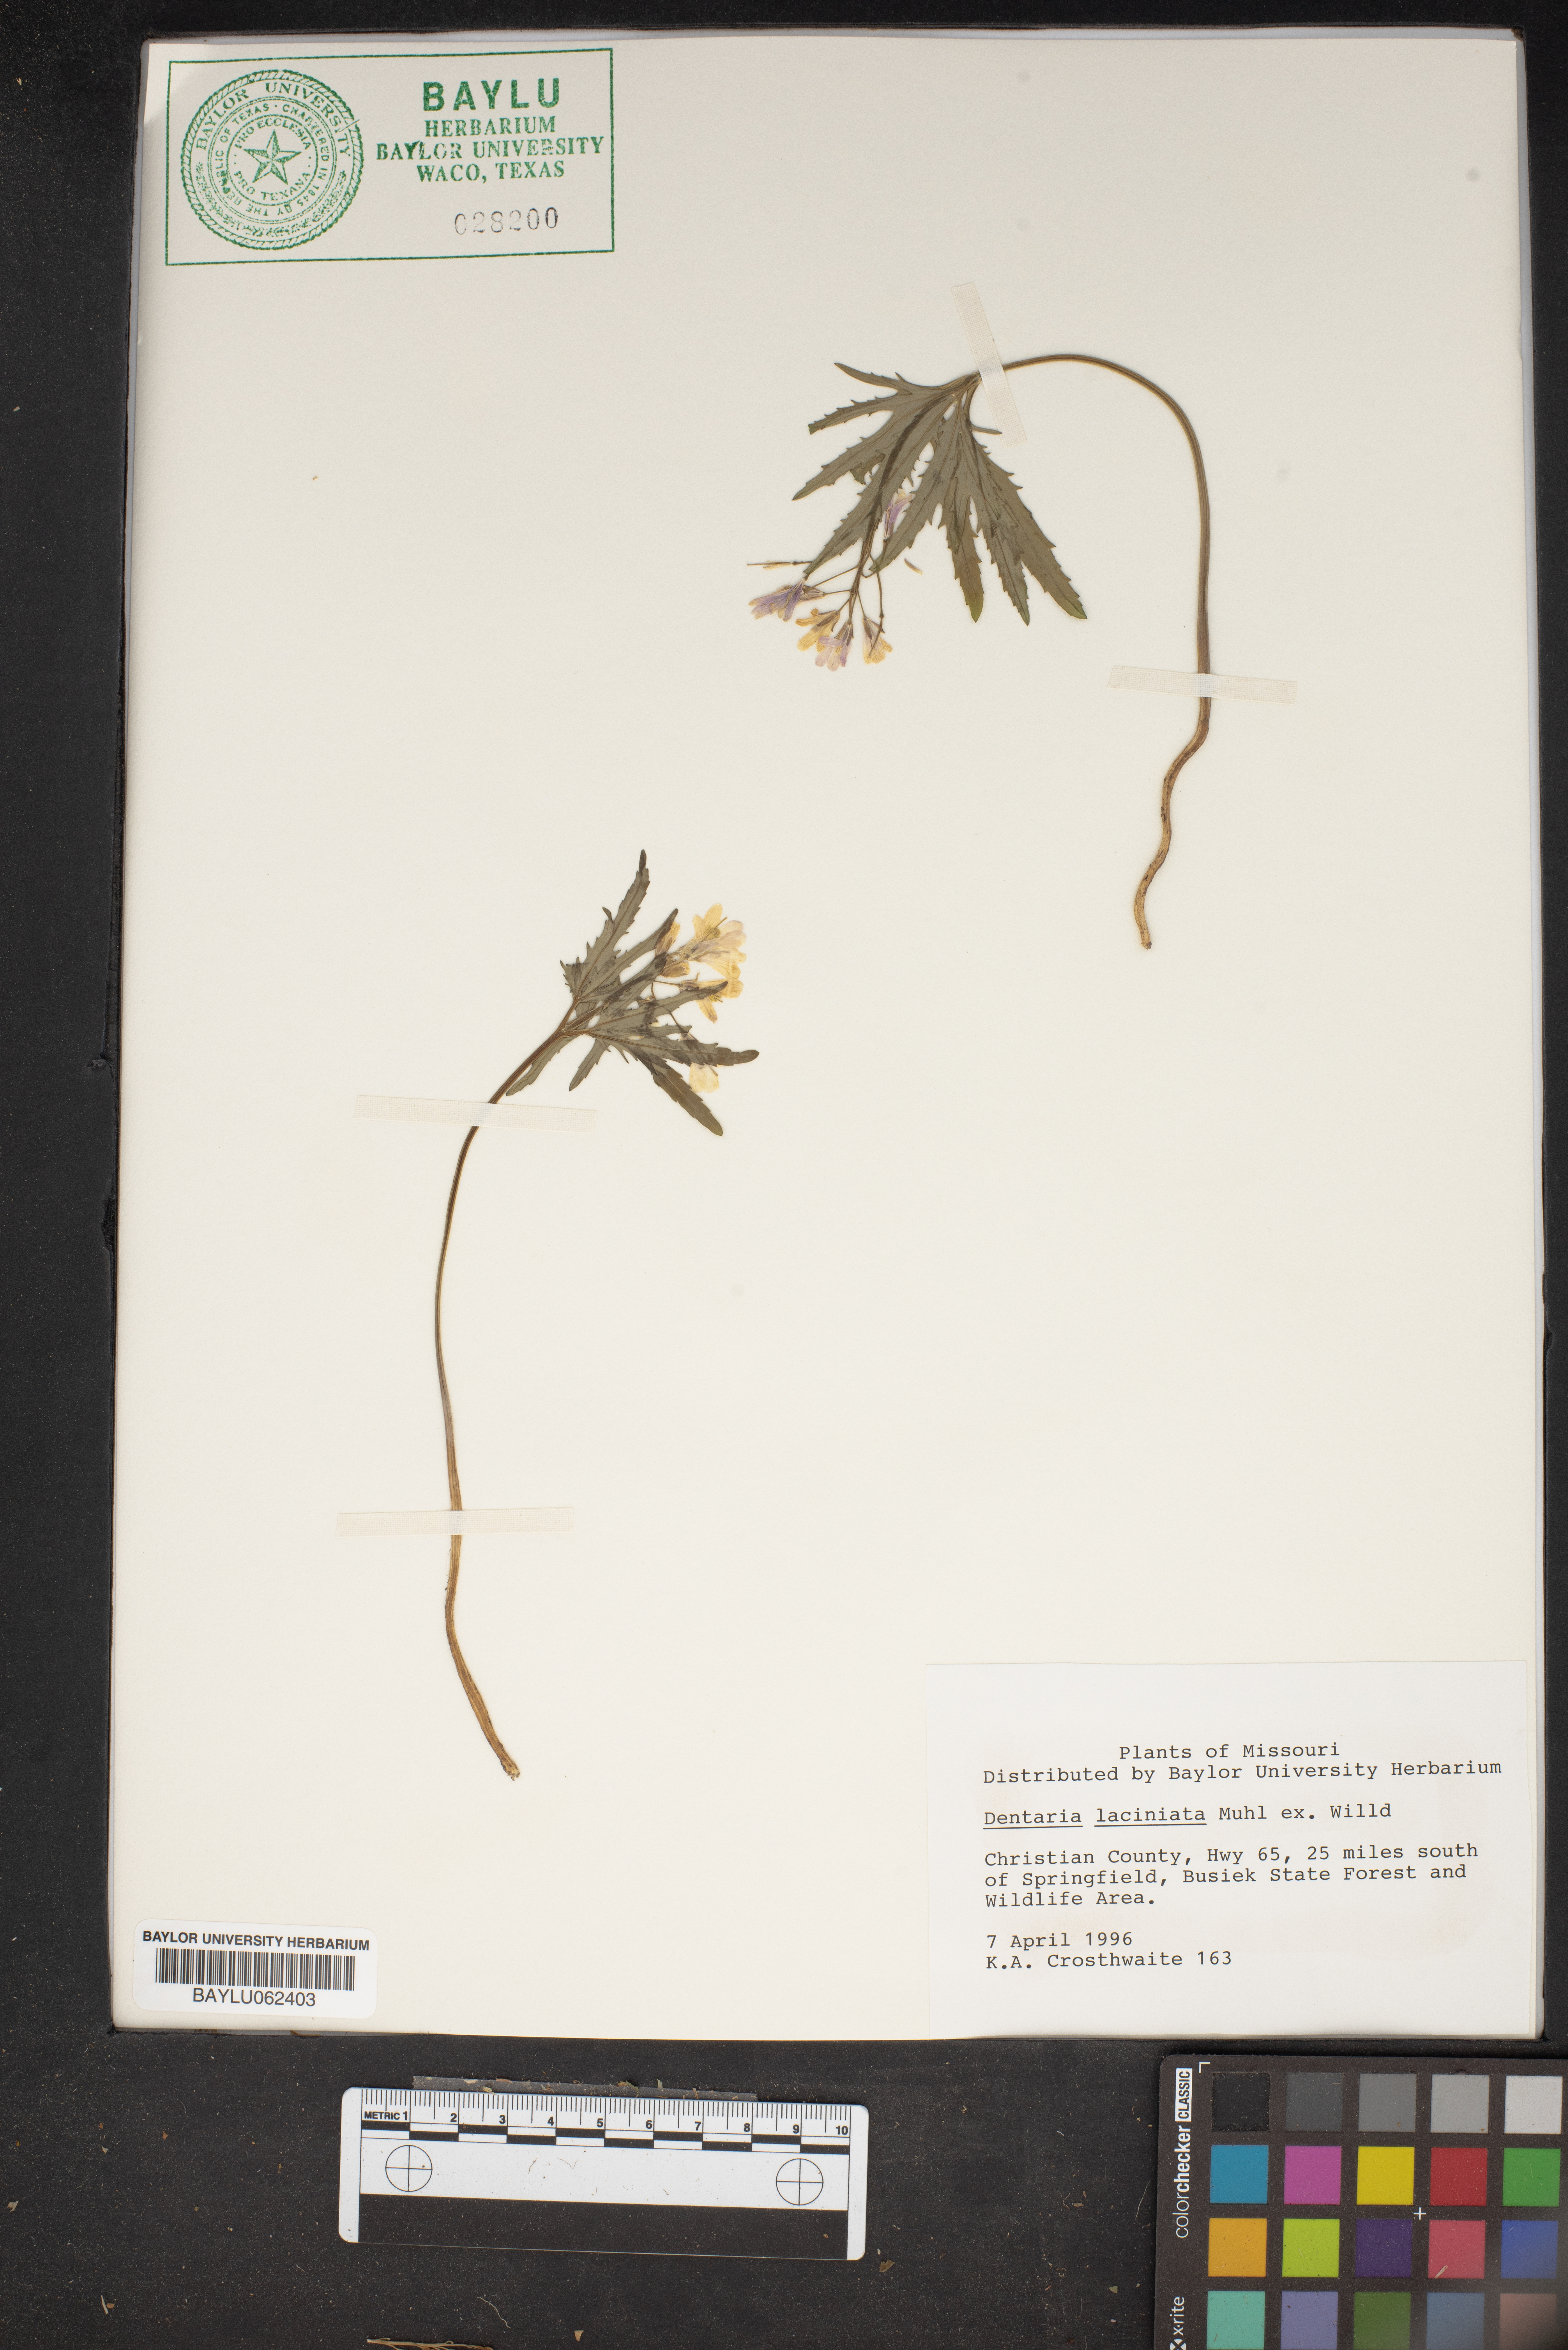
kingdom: Plantae
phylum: Tracheophyta
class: Magnoliopsida
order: Brassicales
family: Brassicaceae
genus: Cardamine
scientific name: Cardamine concatenata
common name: Cut-leaf toothcup
